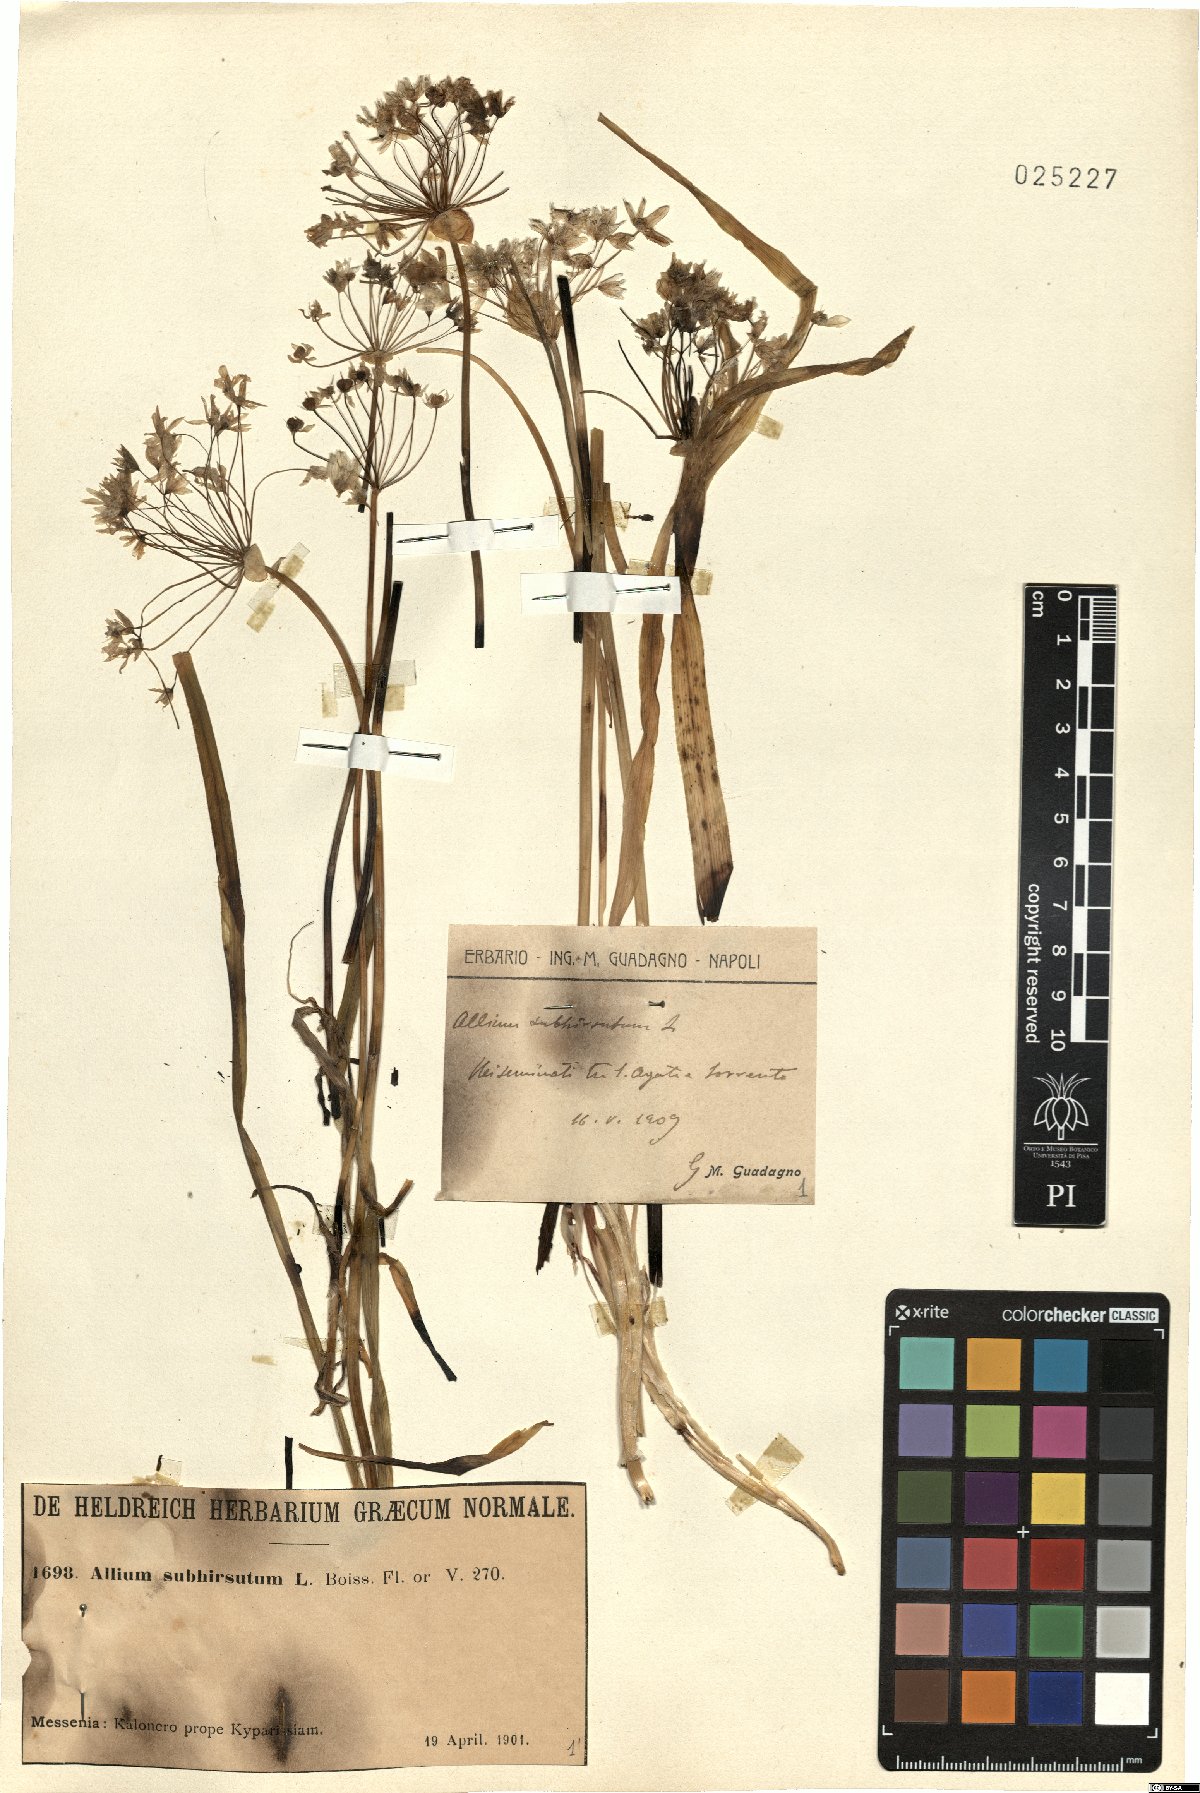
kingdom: Plantae
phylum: Tracheophyta
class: Liliopsida
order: Asparagales
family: Amaryllidaceae
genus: Allium
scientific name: Allium subhirsutum
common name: Hairy garlic
